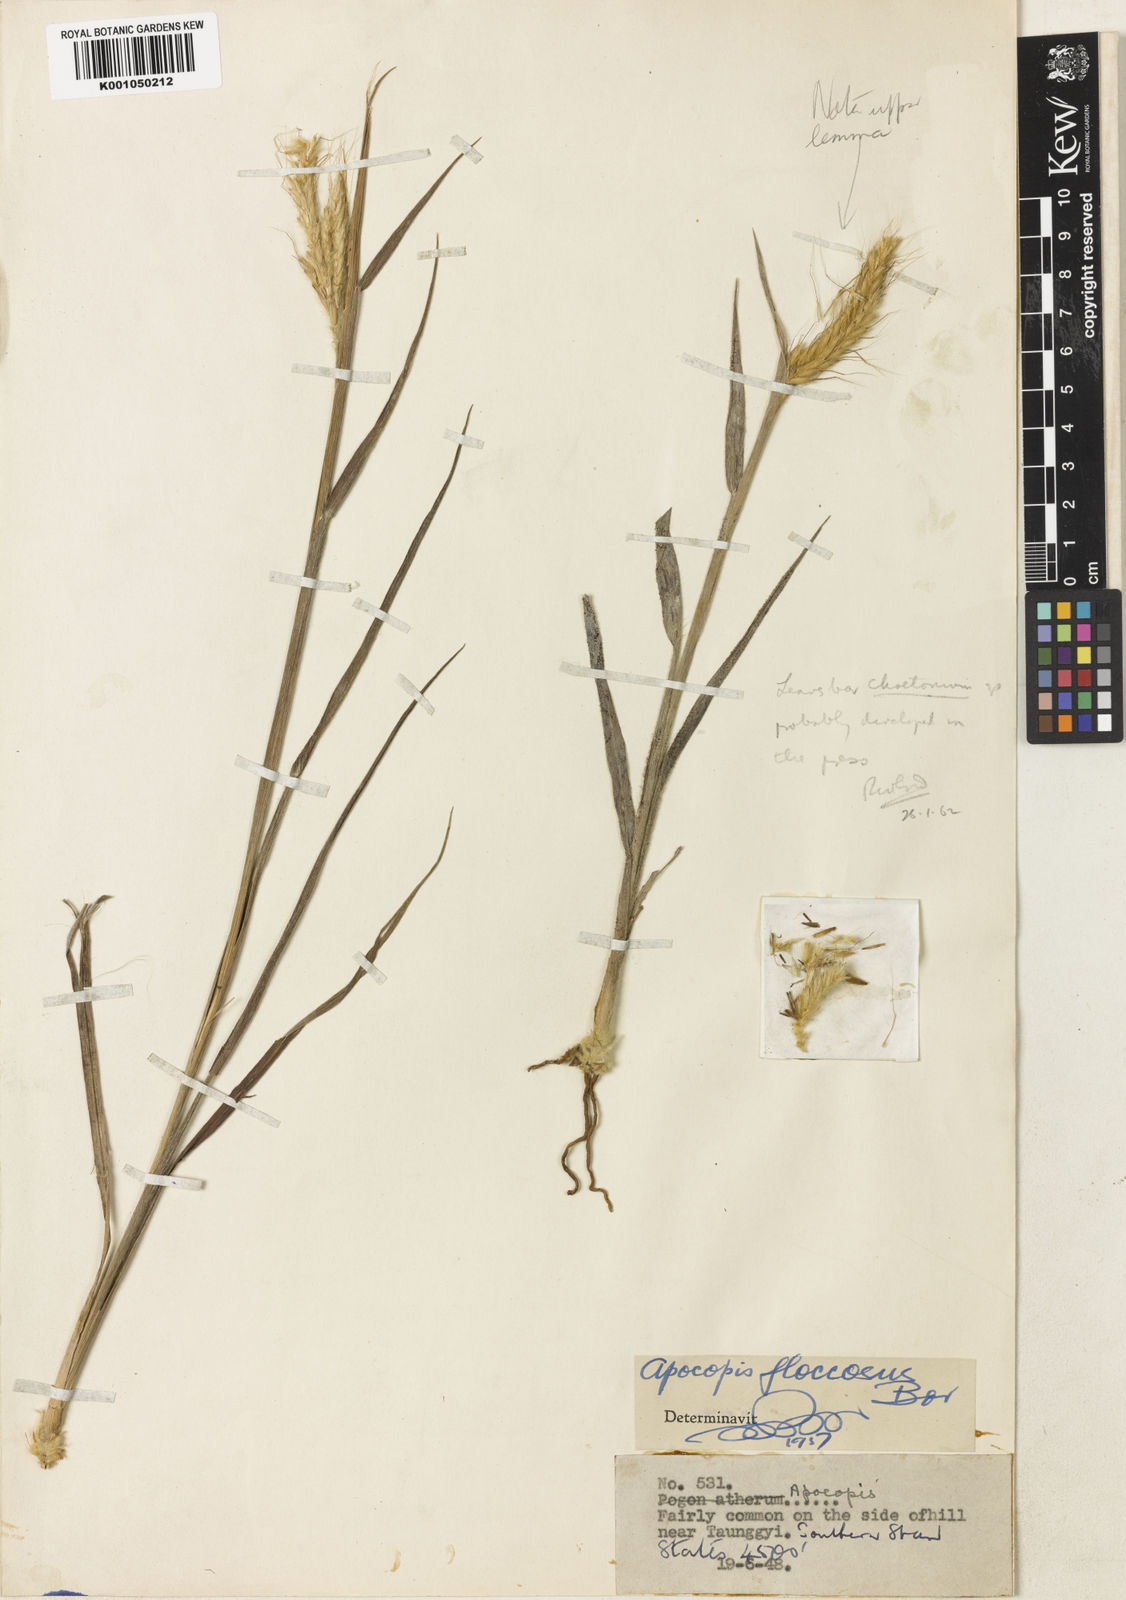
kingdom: Plantae
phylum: Tracheophyta
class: Liliopsida
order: Poales
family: Poaceae
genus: Apocopis
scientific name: Apocopis floccosus
